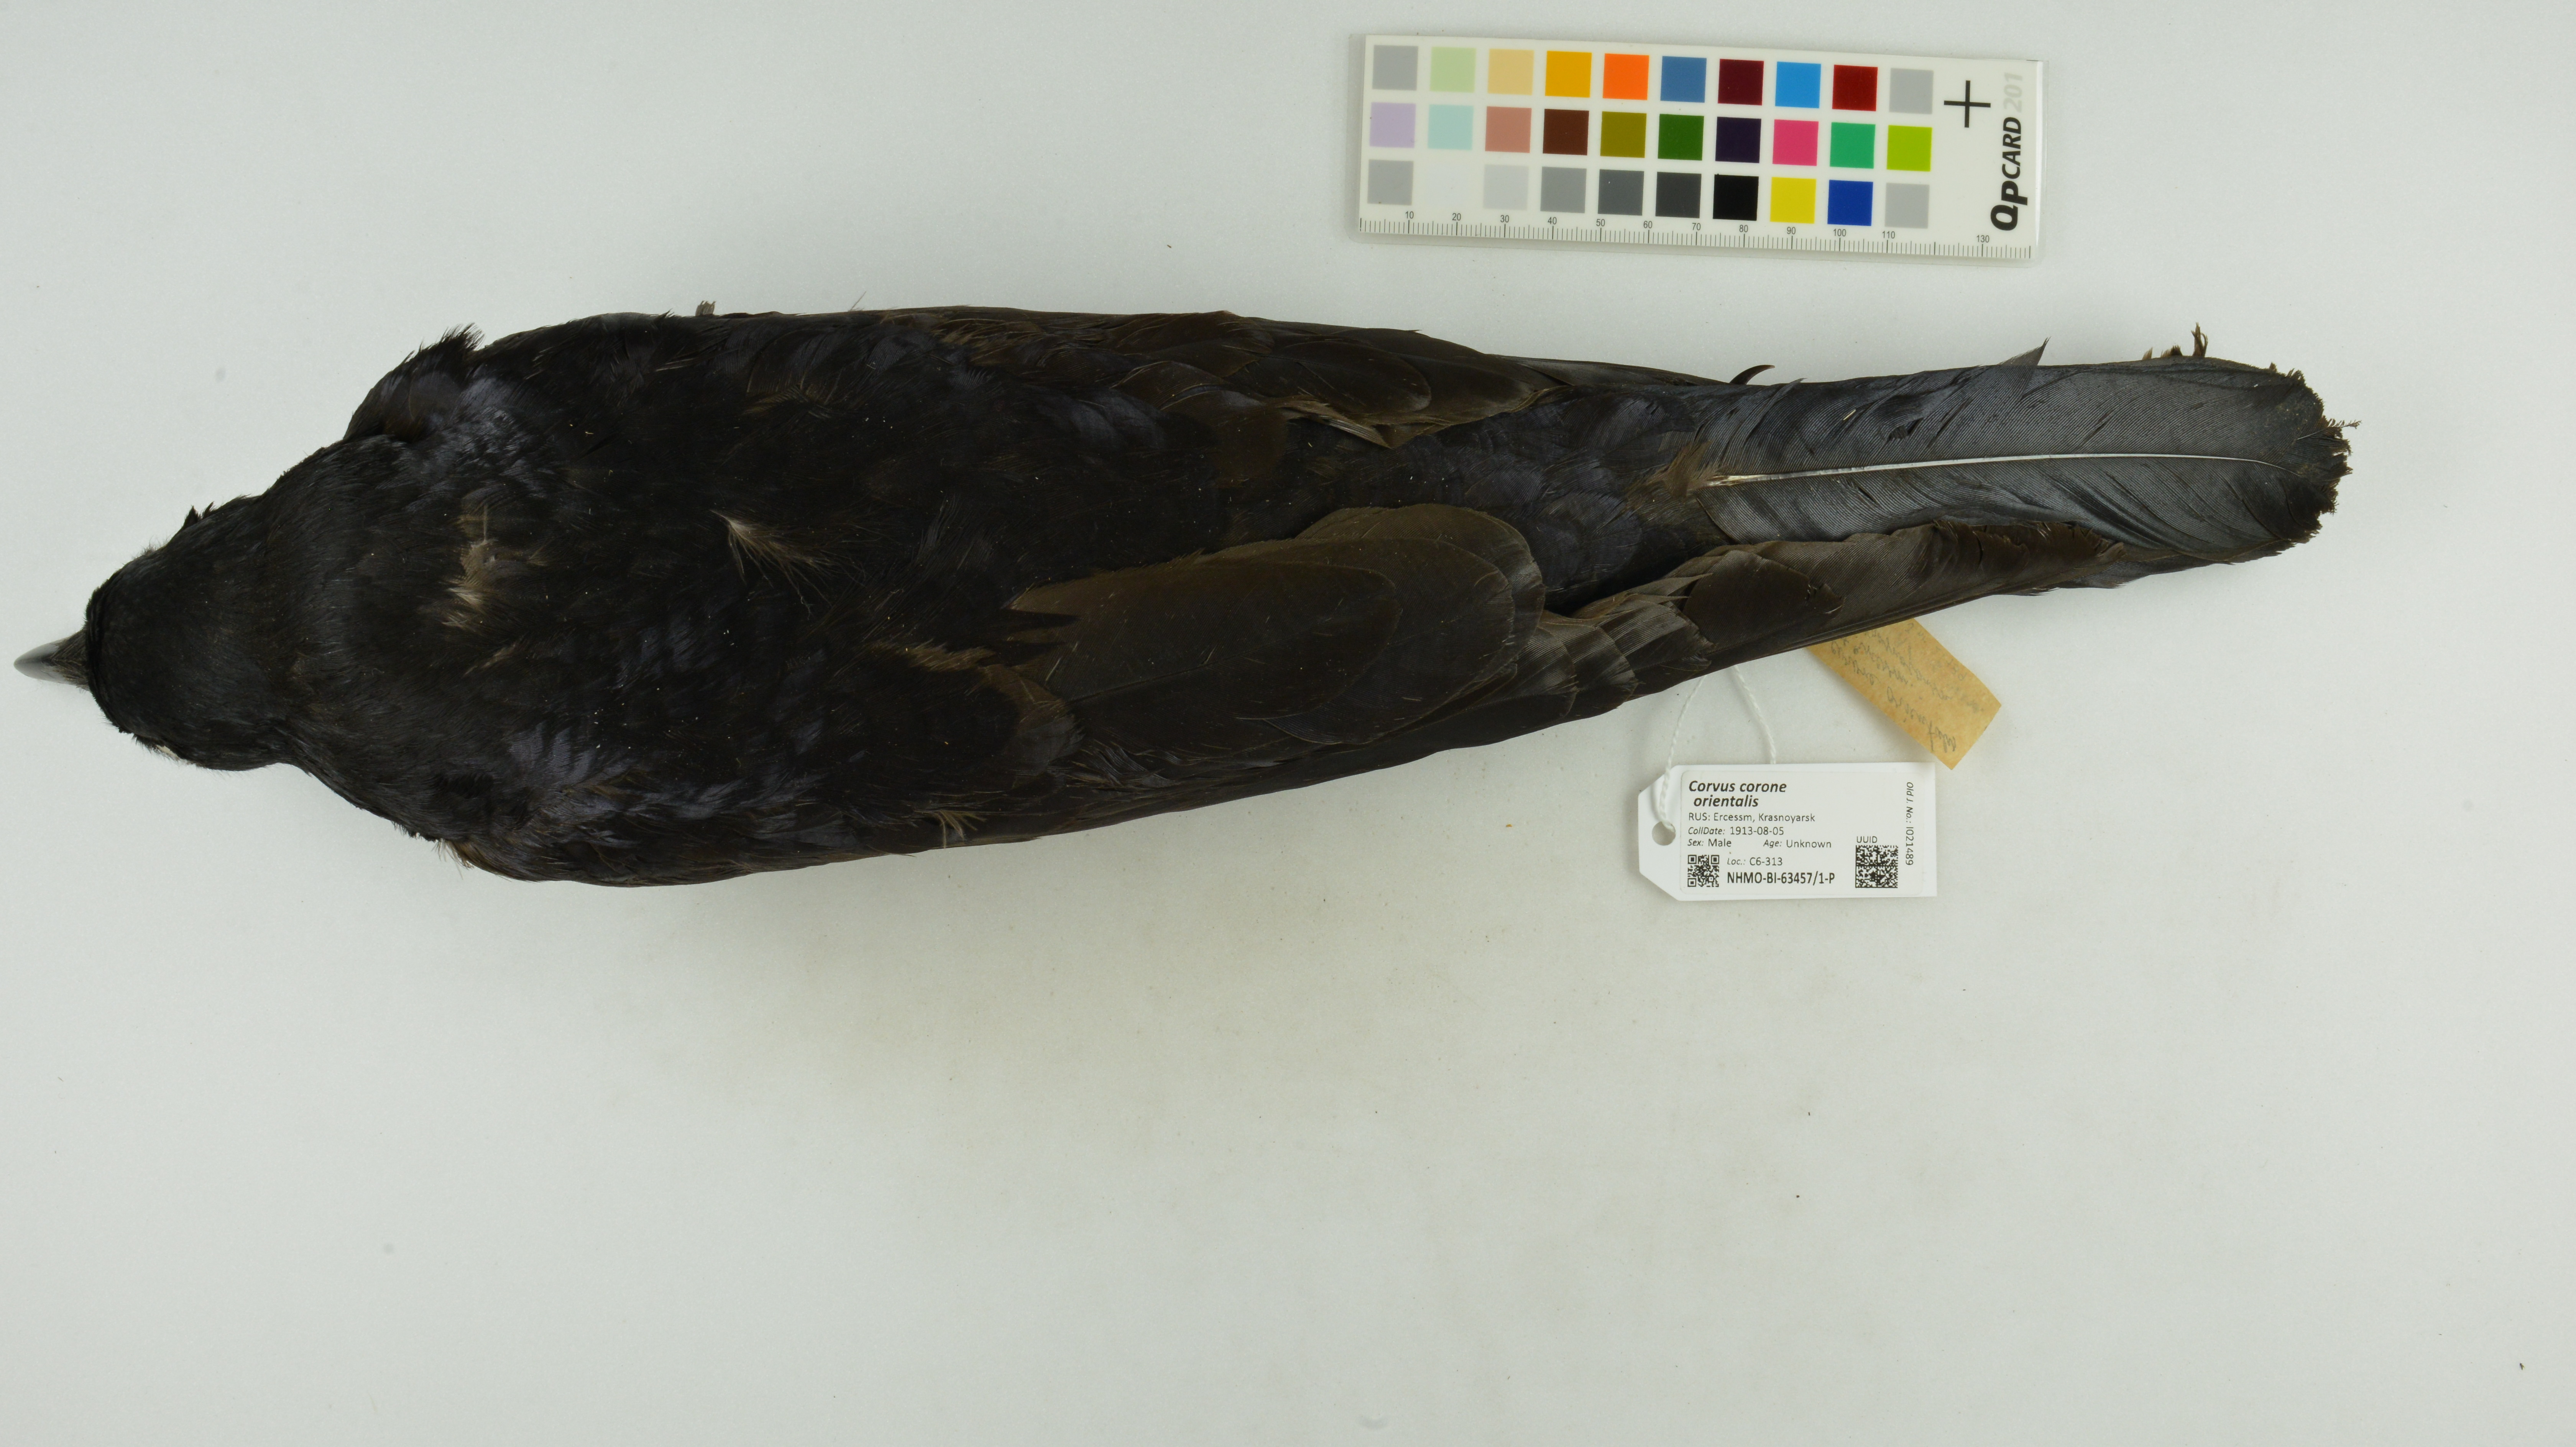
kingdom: Animalia
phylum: Chordata
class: Aves
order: Passeriformes
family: Corvidae
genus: Corvus
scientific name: Corvus corone
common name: Carrion crow
